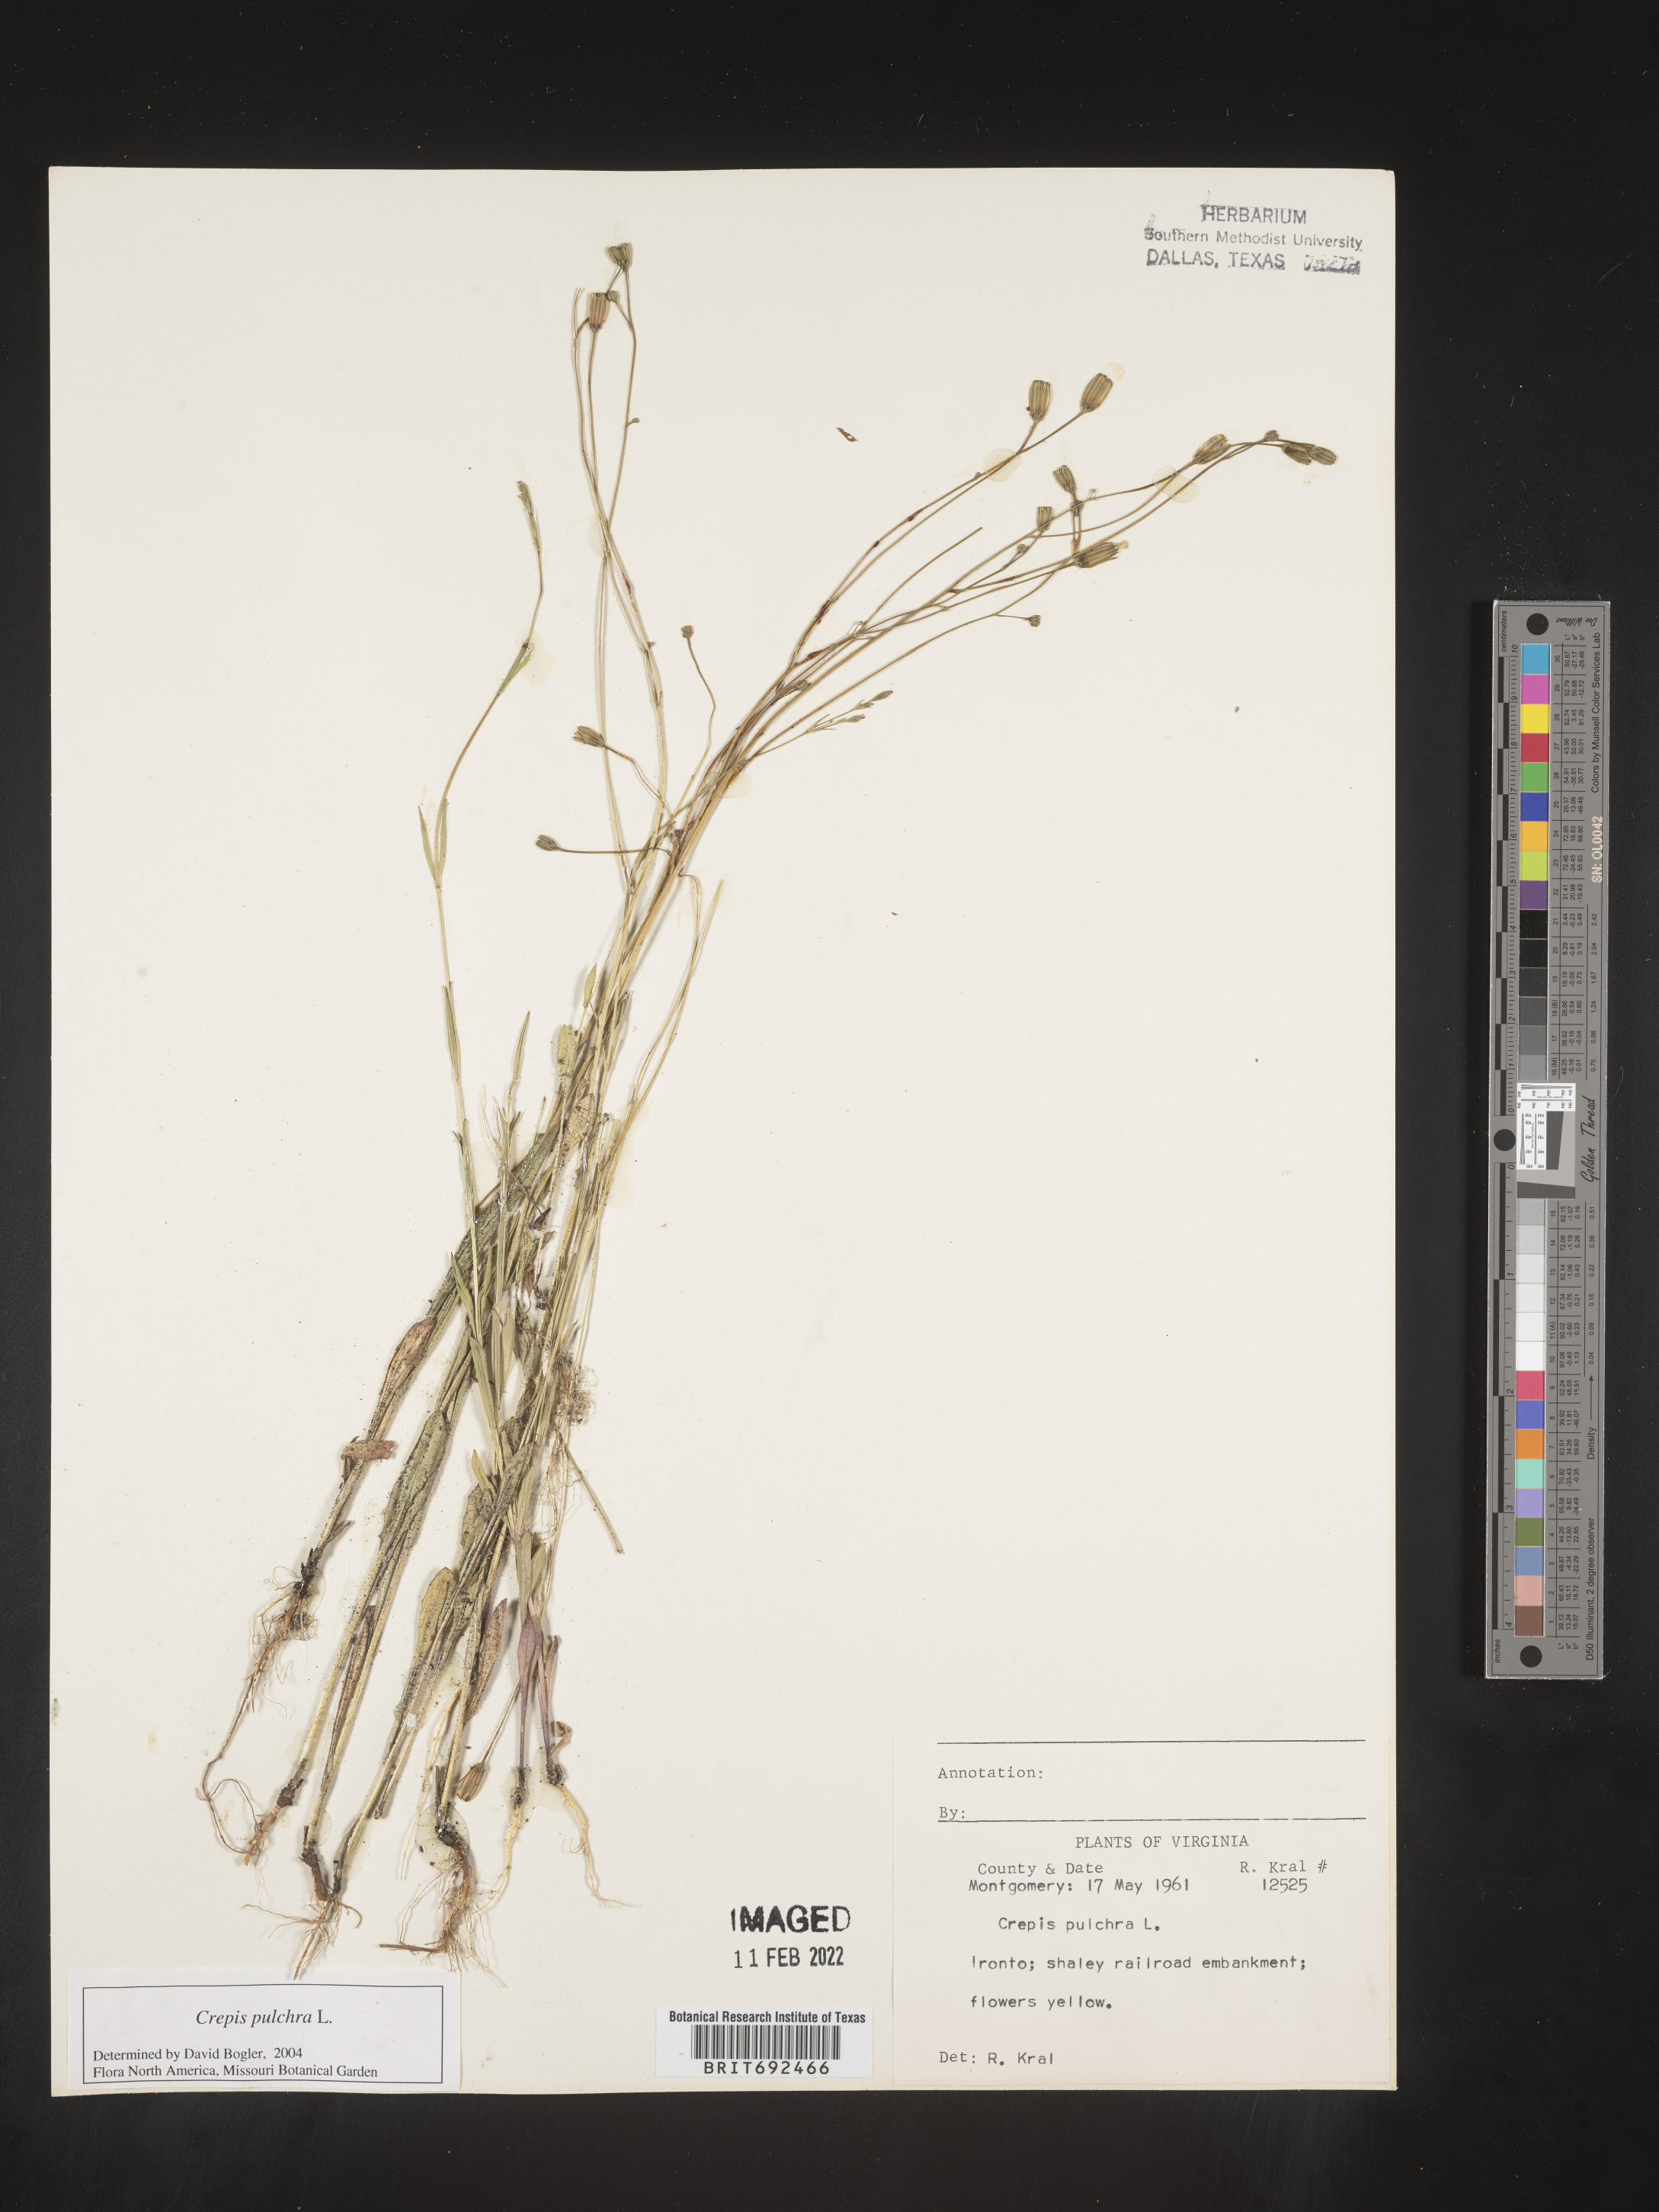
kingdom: Plantae
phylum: Tracheophyta
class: Magnoliopsida
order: Asterales
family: Asteraceae
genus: Crepis
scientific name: Crepis pulchra
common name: Hawk's-beard
